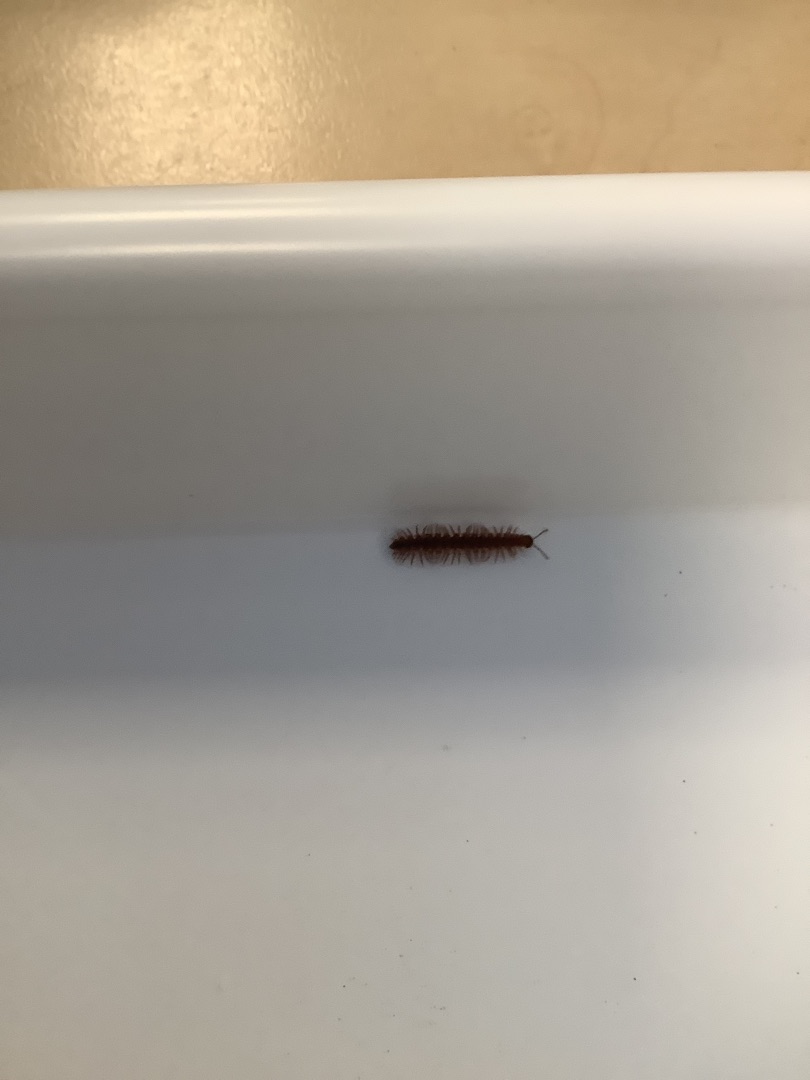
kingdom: Animalia
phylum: Arthropoda
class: Diplopoda
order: Polydesmida
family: Polydesmidae
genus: Polydesmus
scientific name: Polydesmus
